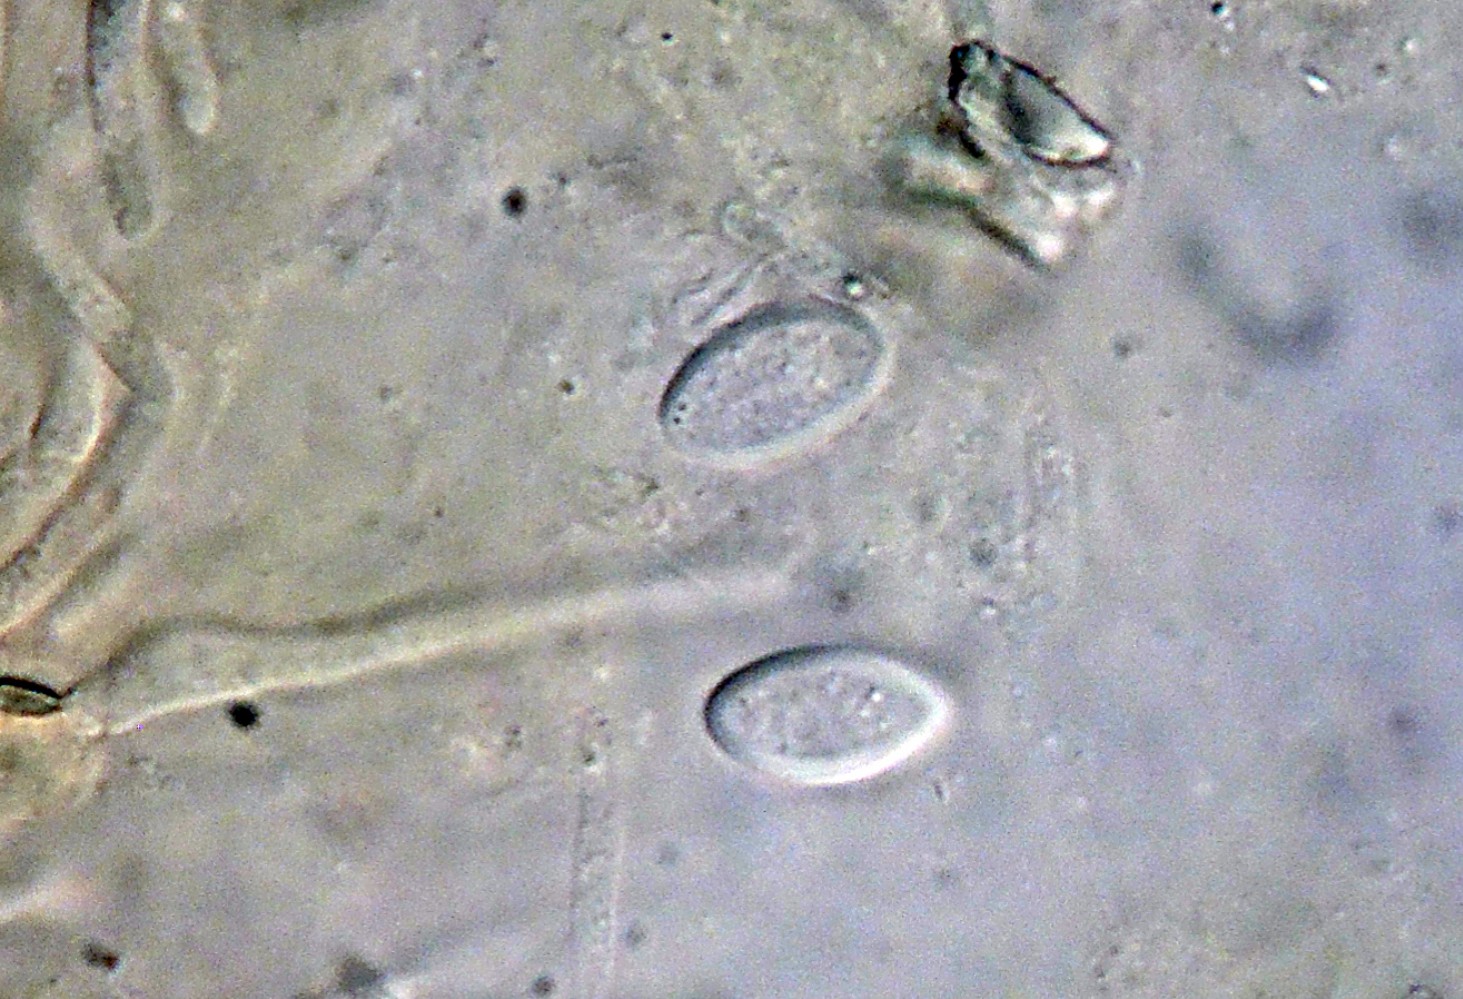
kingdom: Fungi
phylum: Ascomycota
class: Pezizomycetes
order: Pezizales
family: Ascobolaceae
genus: Ascobolus
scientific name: Ascobolus
